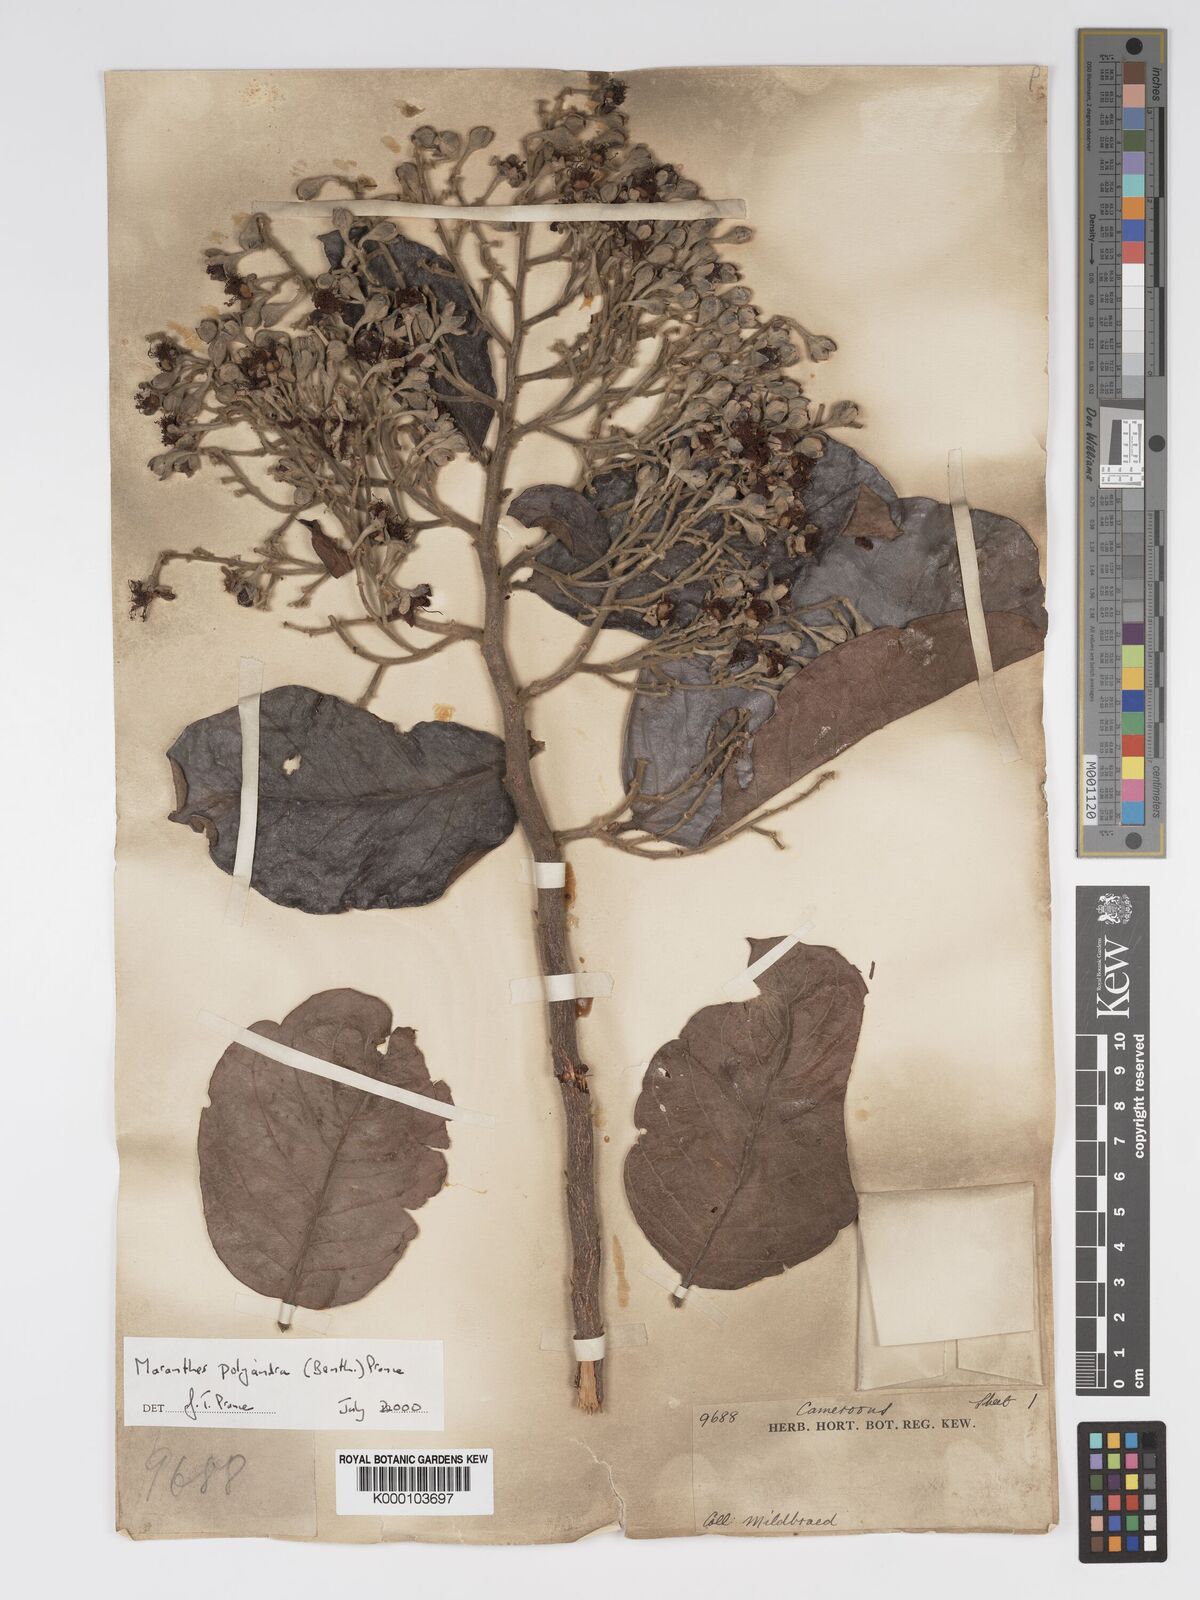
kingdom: Plantae
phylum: Tracheophyta
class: Magnoliopsida
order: Malpighiales
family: Chrysobalanaceae
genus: Maranthes
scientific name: Maranthes polyandra
